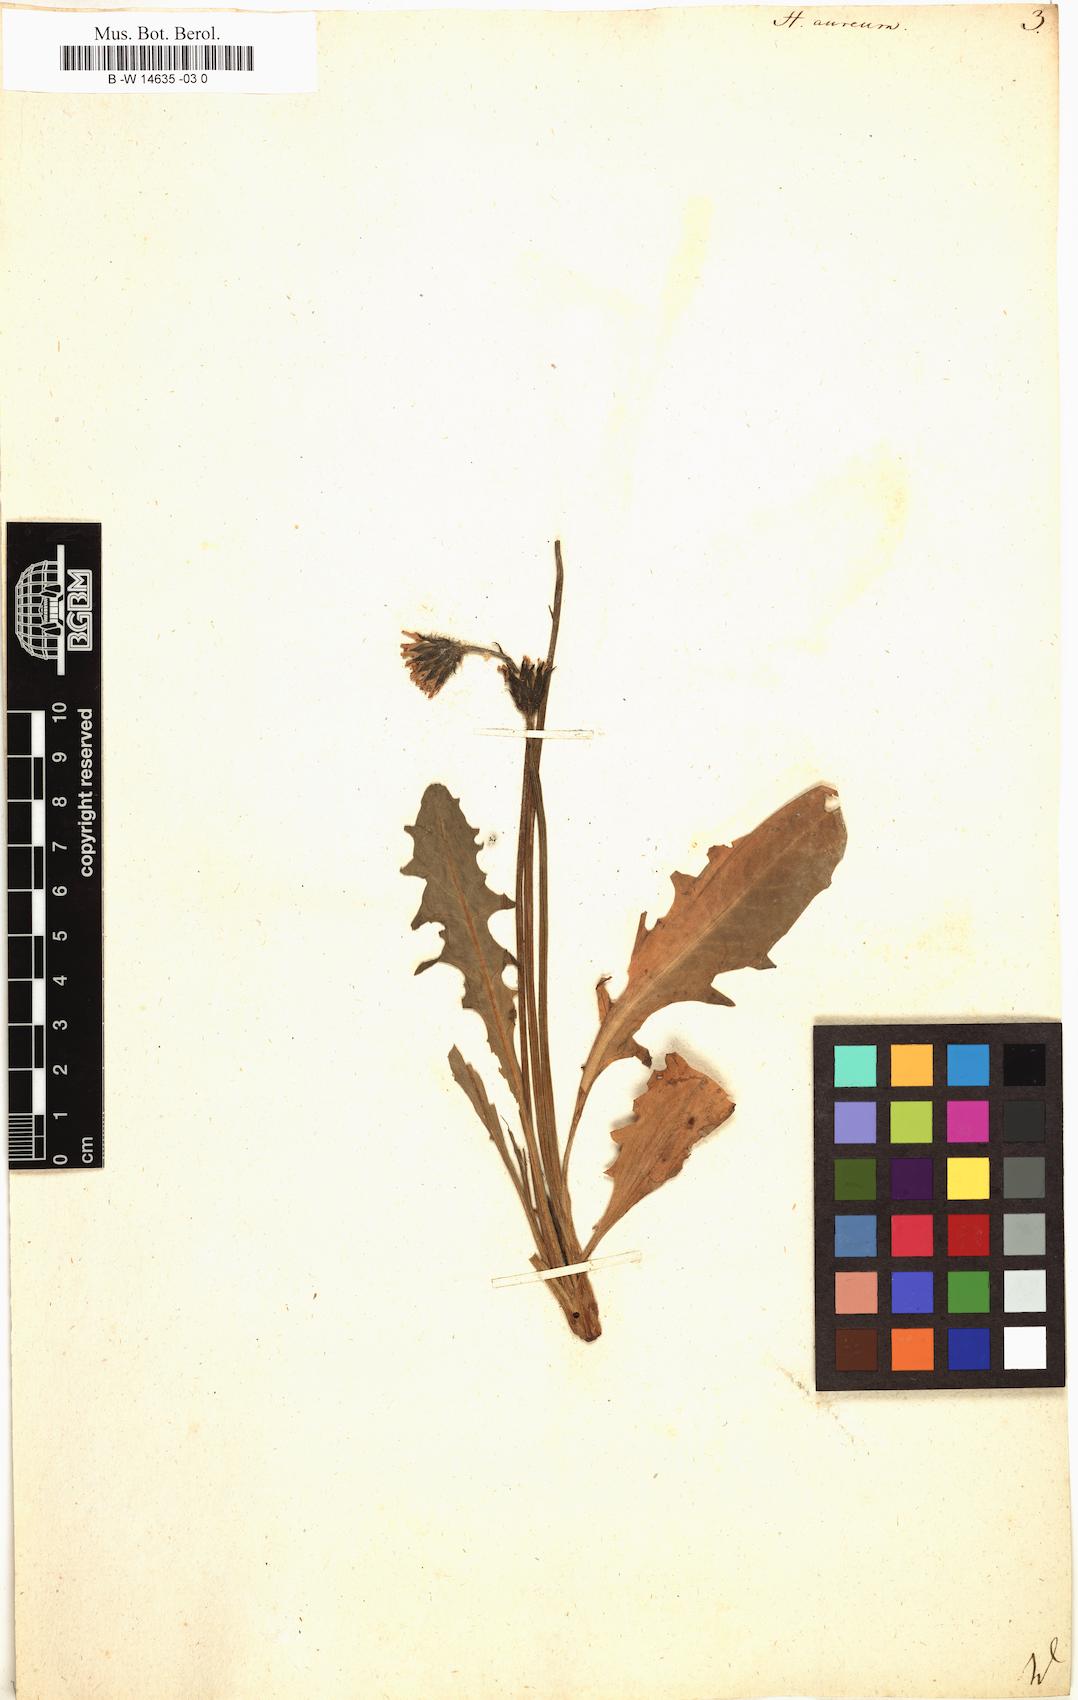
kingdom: Plantae
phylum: Tracheophyta
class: Magnoliopsida
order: Asterales
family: Asteraceae
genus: Hieracium
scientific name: Hieracium aureum
